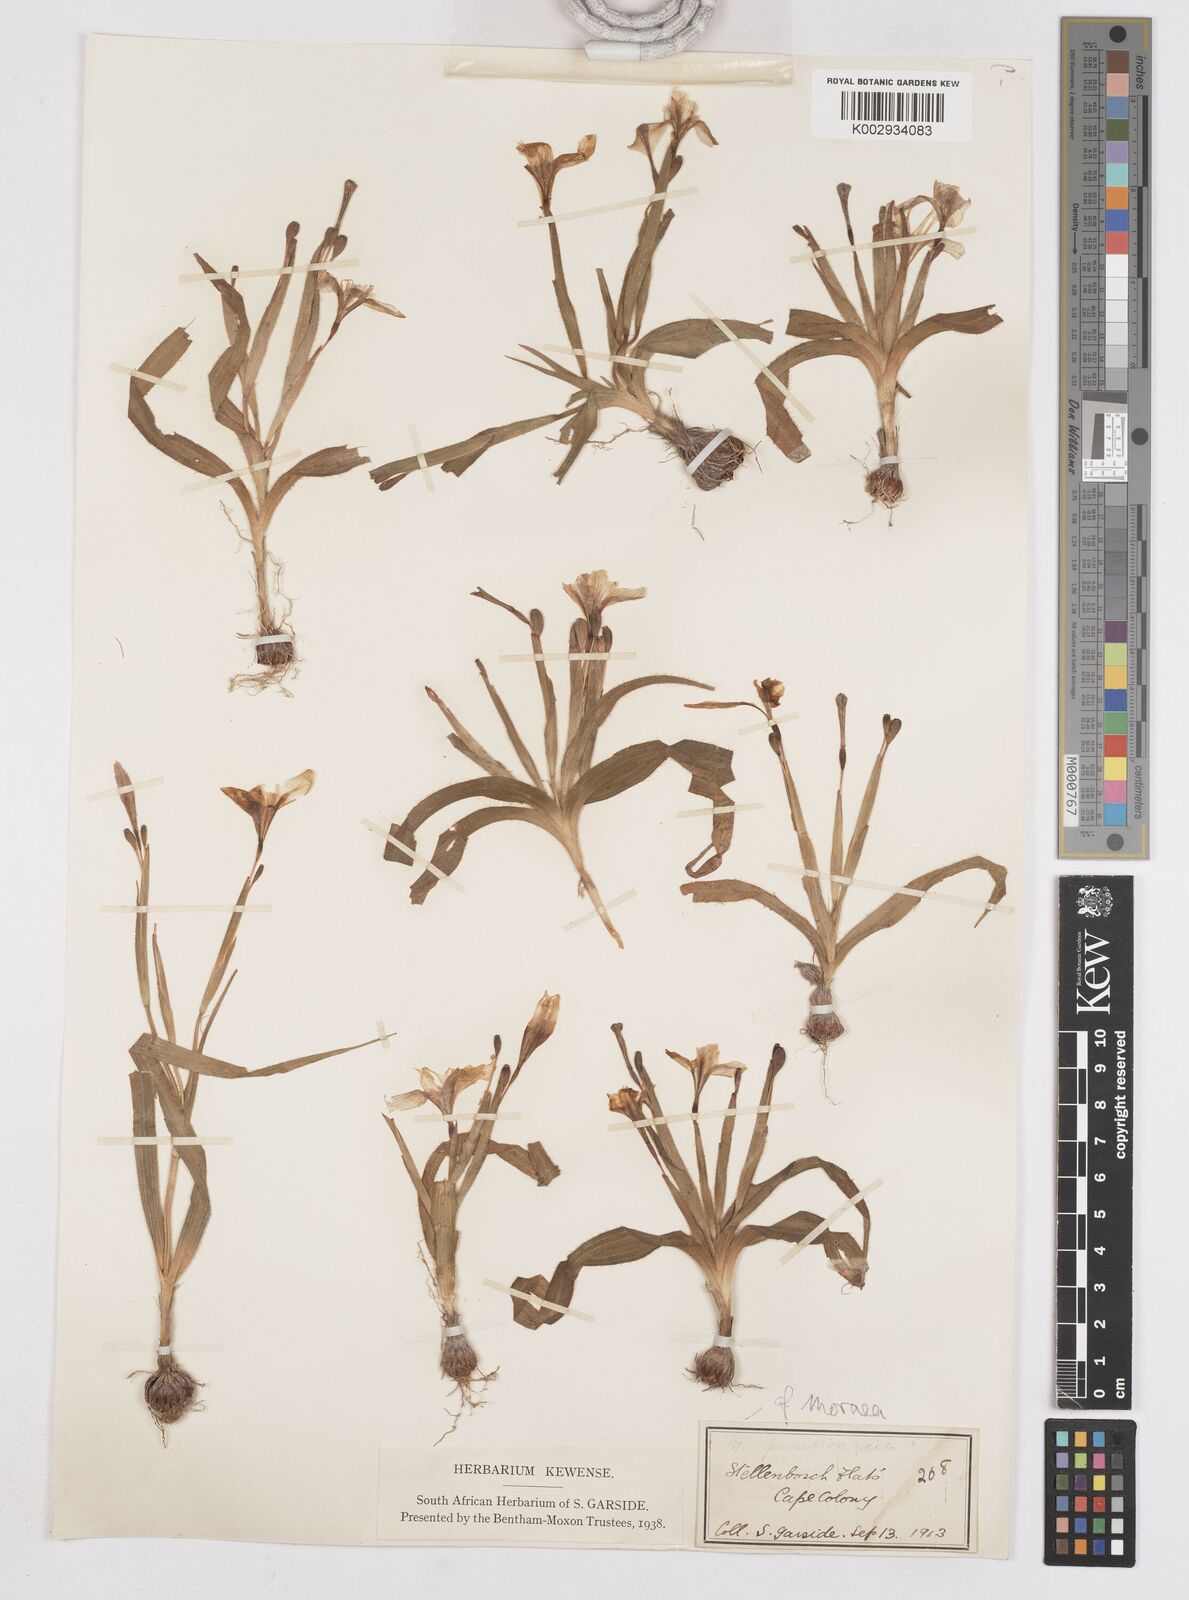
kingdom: Plantae
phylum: Tracheophyta
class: Liliopsida
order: Asparagales
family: Iridaceae
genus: Moraea
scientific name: Moraea papilionacea
